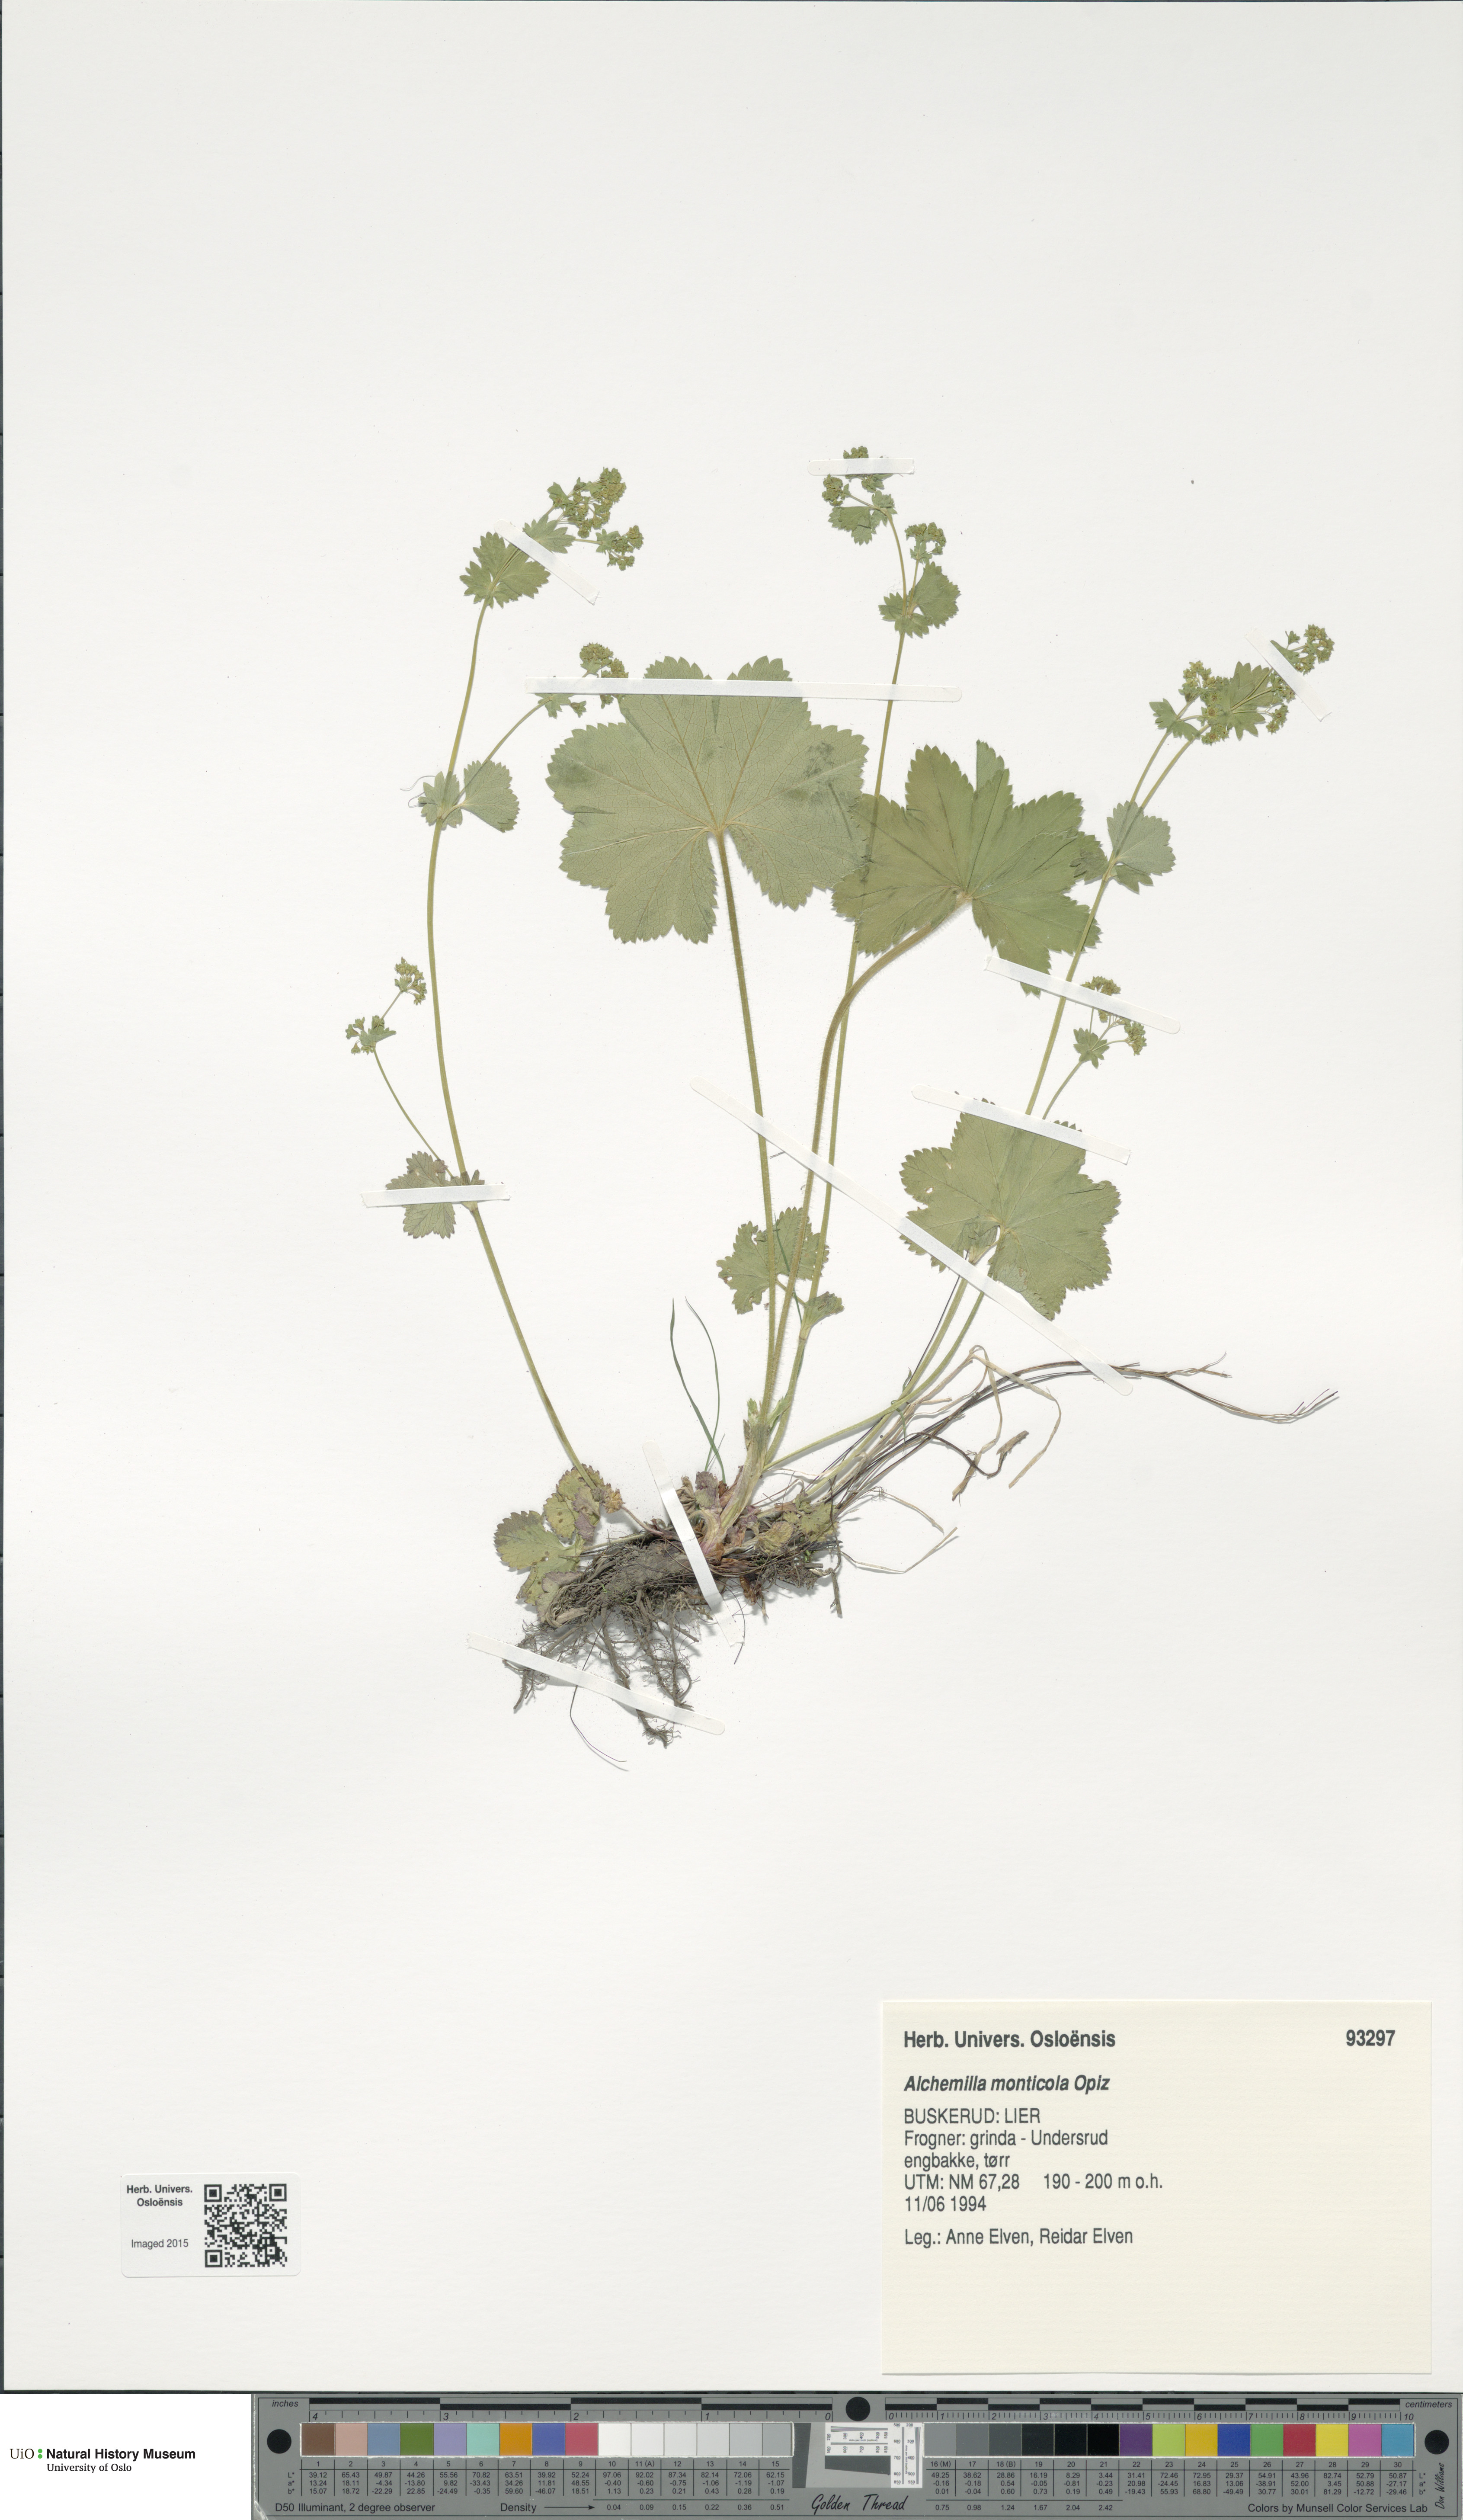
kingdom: Plantae
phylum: Tracheophyta
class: Magnoliopsida
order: Rosales
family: Rosaceae
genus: Alchemilla
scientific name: Alchemilla monticola
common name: Hairy lady's mantle
